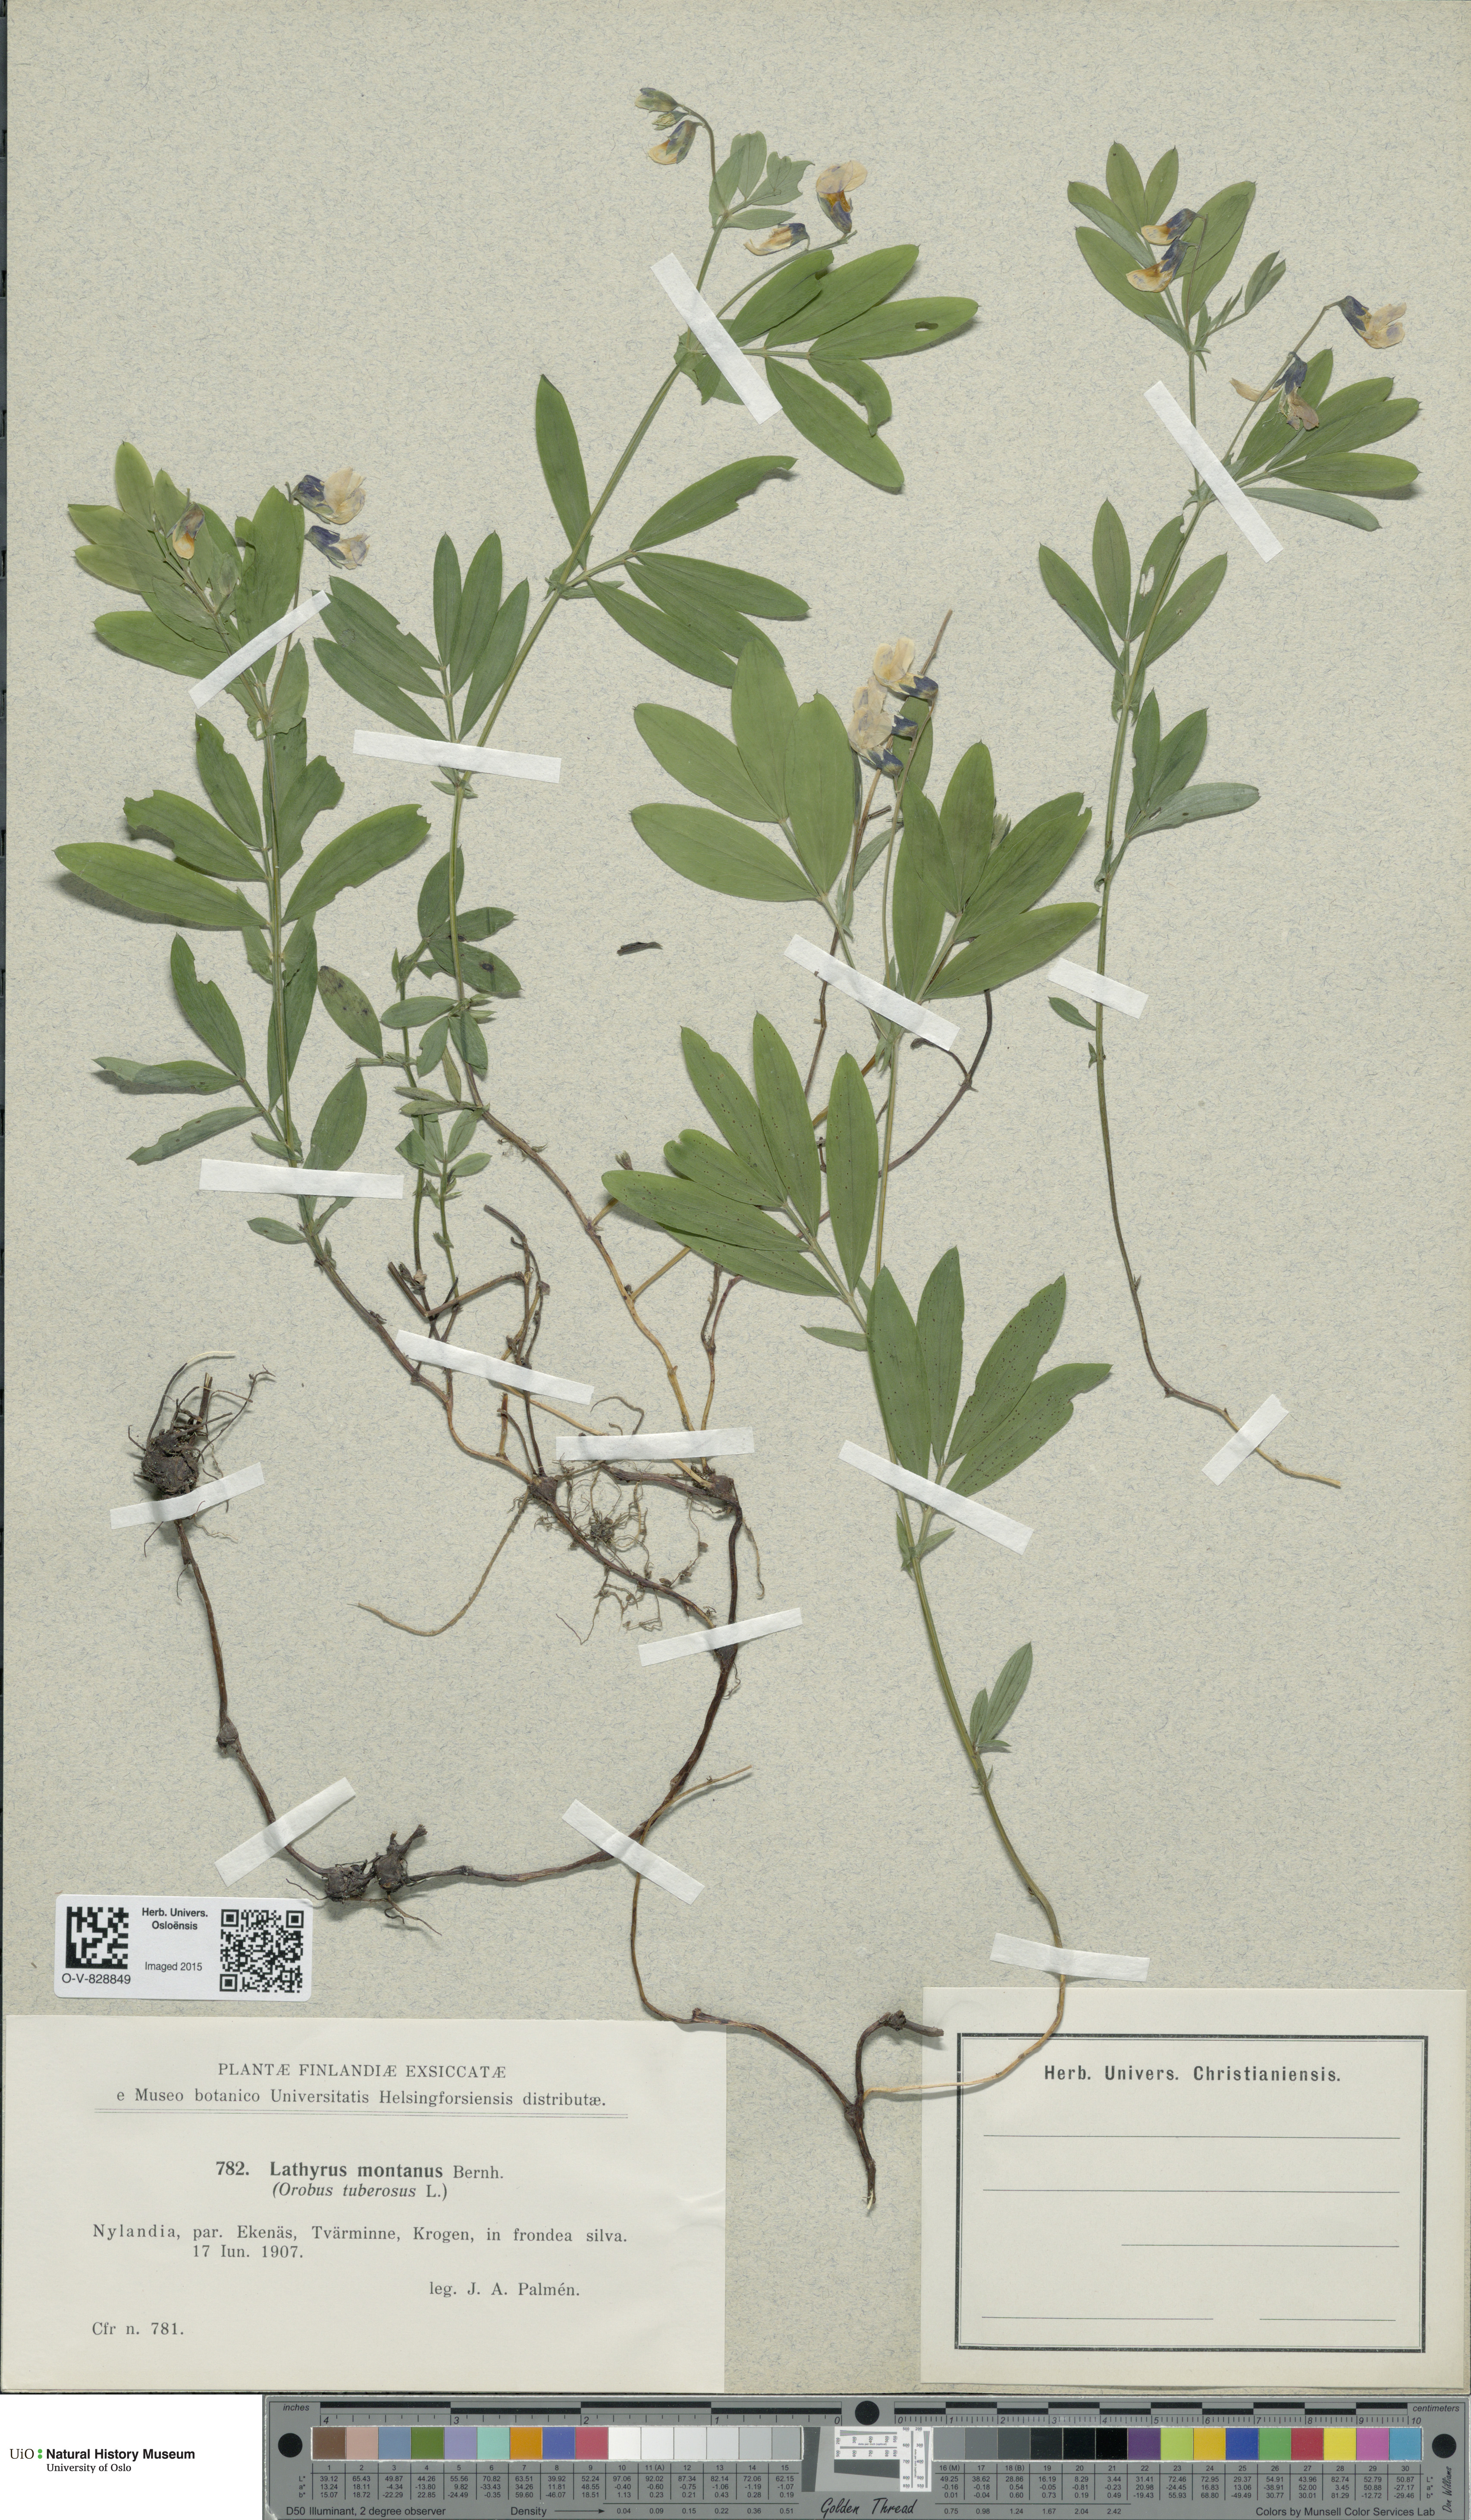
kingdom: Plantae
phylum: Tracheophyta
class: Magnoliopsida
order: Fabales
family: Fabaceae
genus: Lathyrus
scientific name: Lathyrus linifolius
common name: Bitter-vetch
